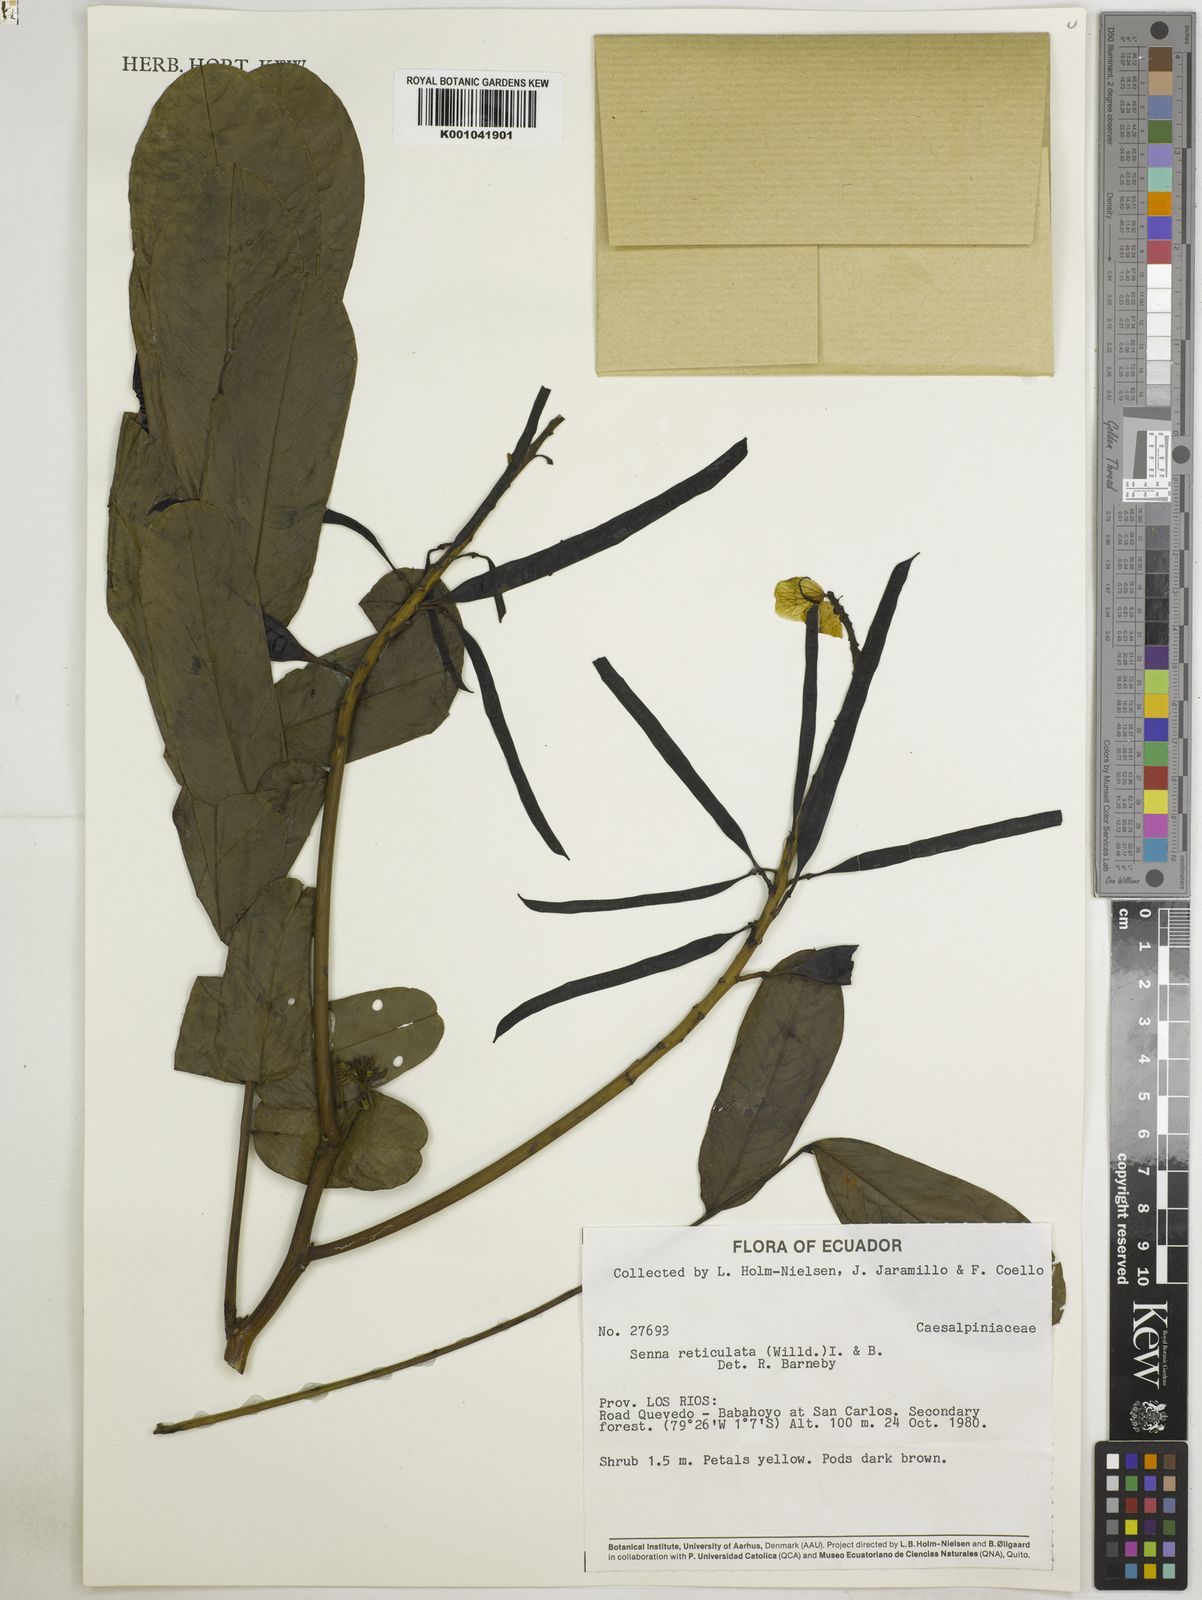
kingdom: Plantae
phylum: Tracheophyta
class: Magnoliopsida
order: Fabales
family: Fabaceae
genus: Senna
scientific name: Senna reticulata
